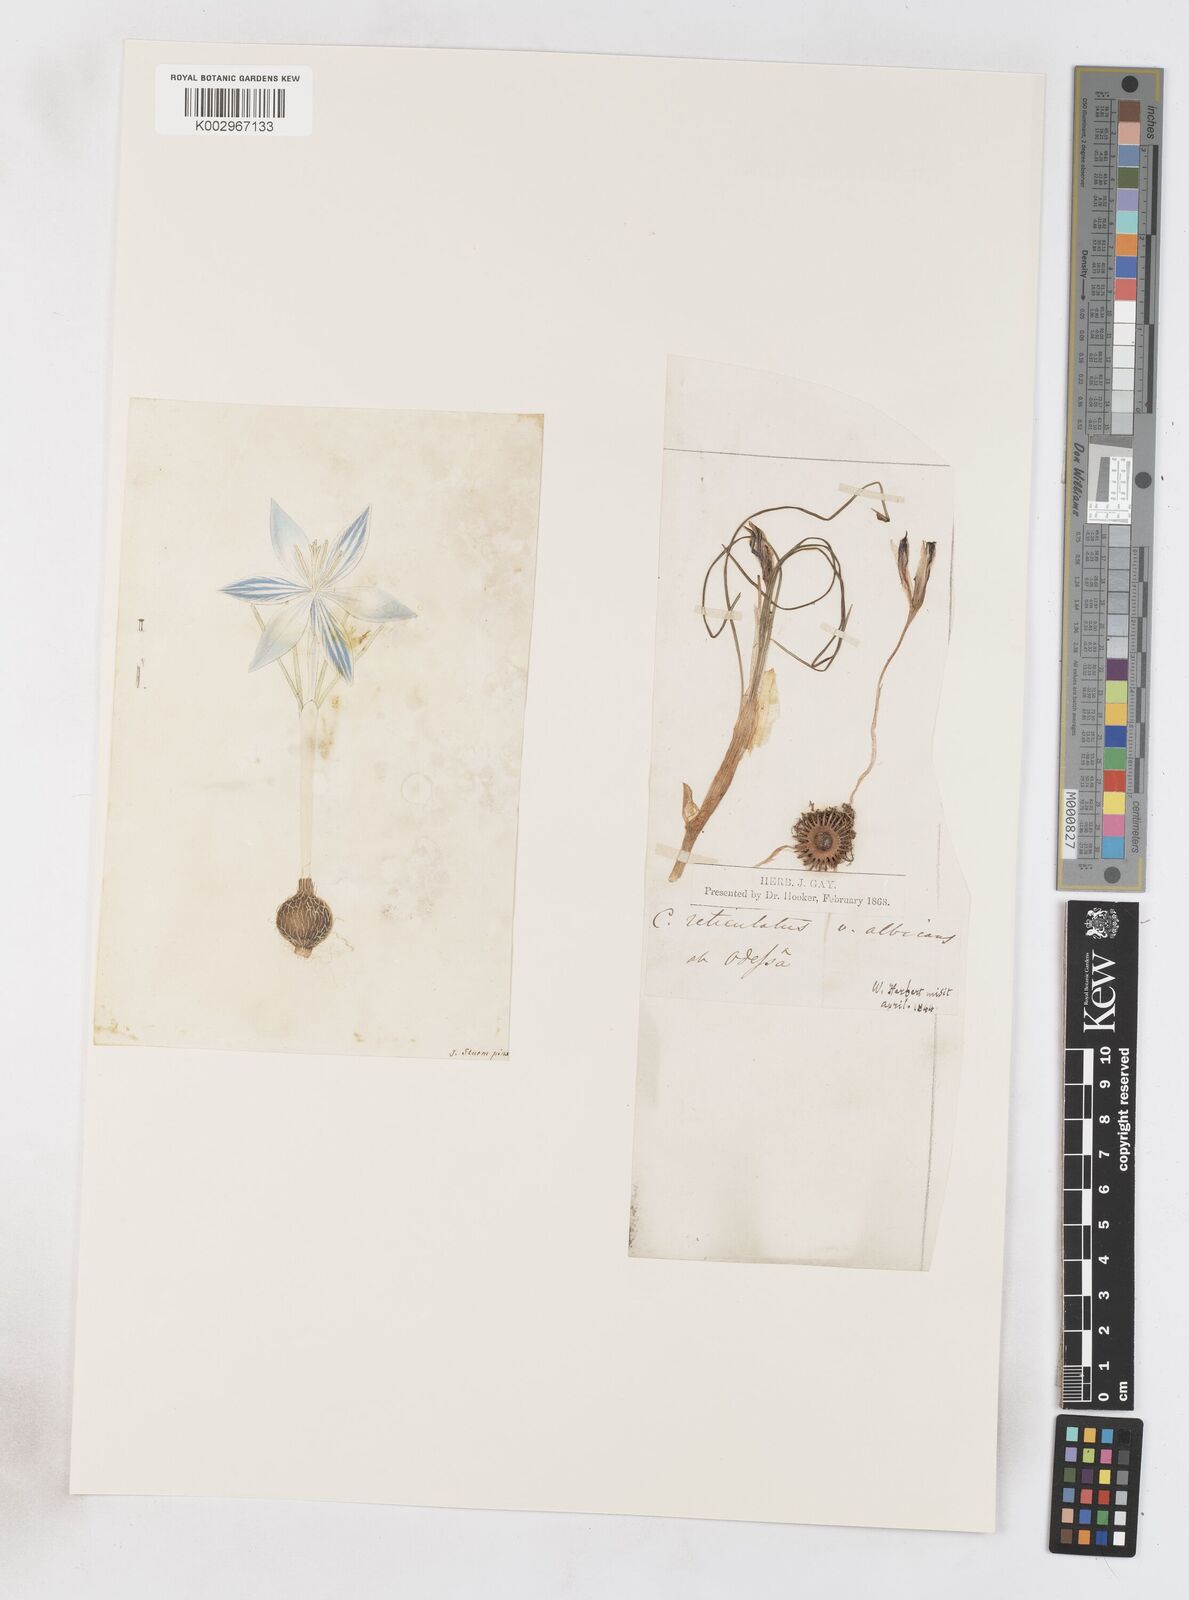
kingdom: Plantae
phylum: Tracheophyta
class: Liliopsida
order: Asparagales
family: Iridaceae
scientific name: Iridaceae
